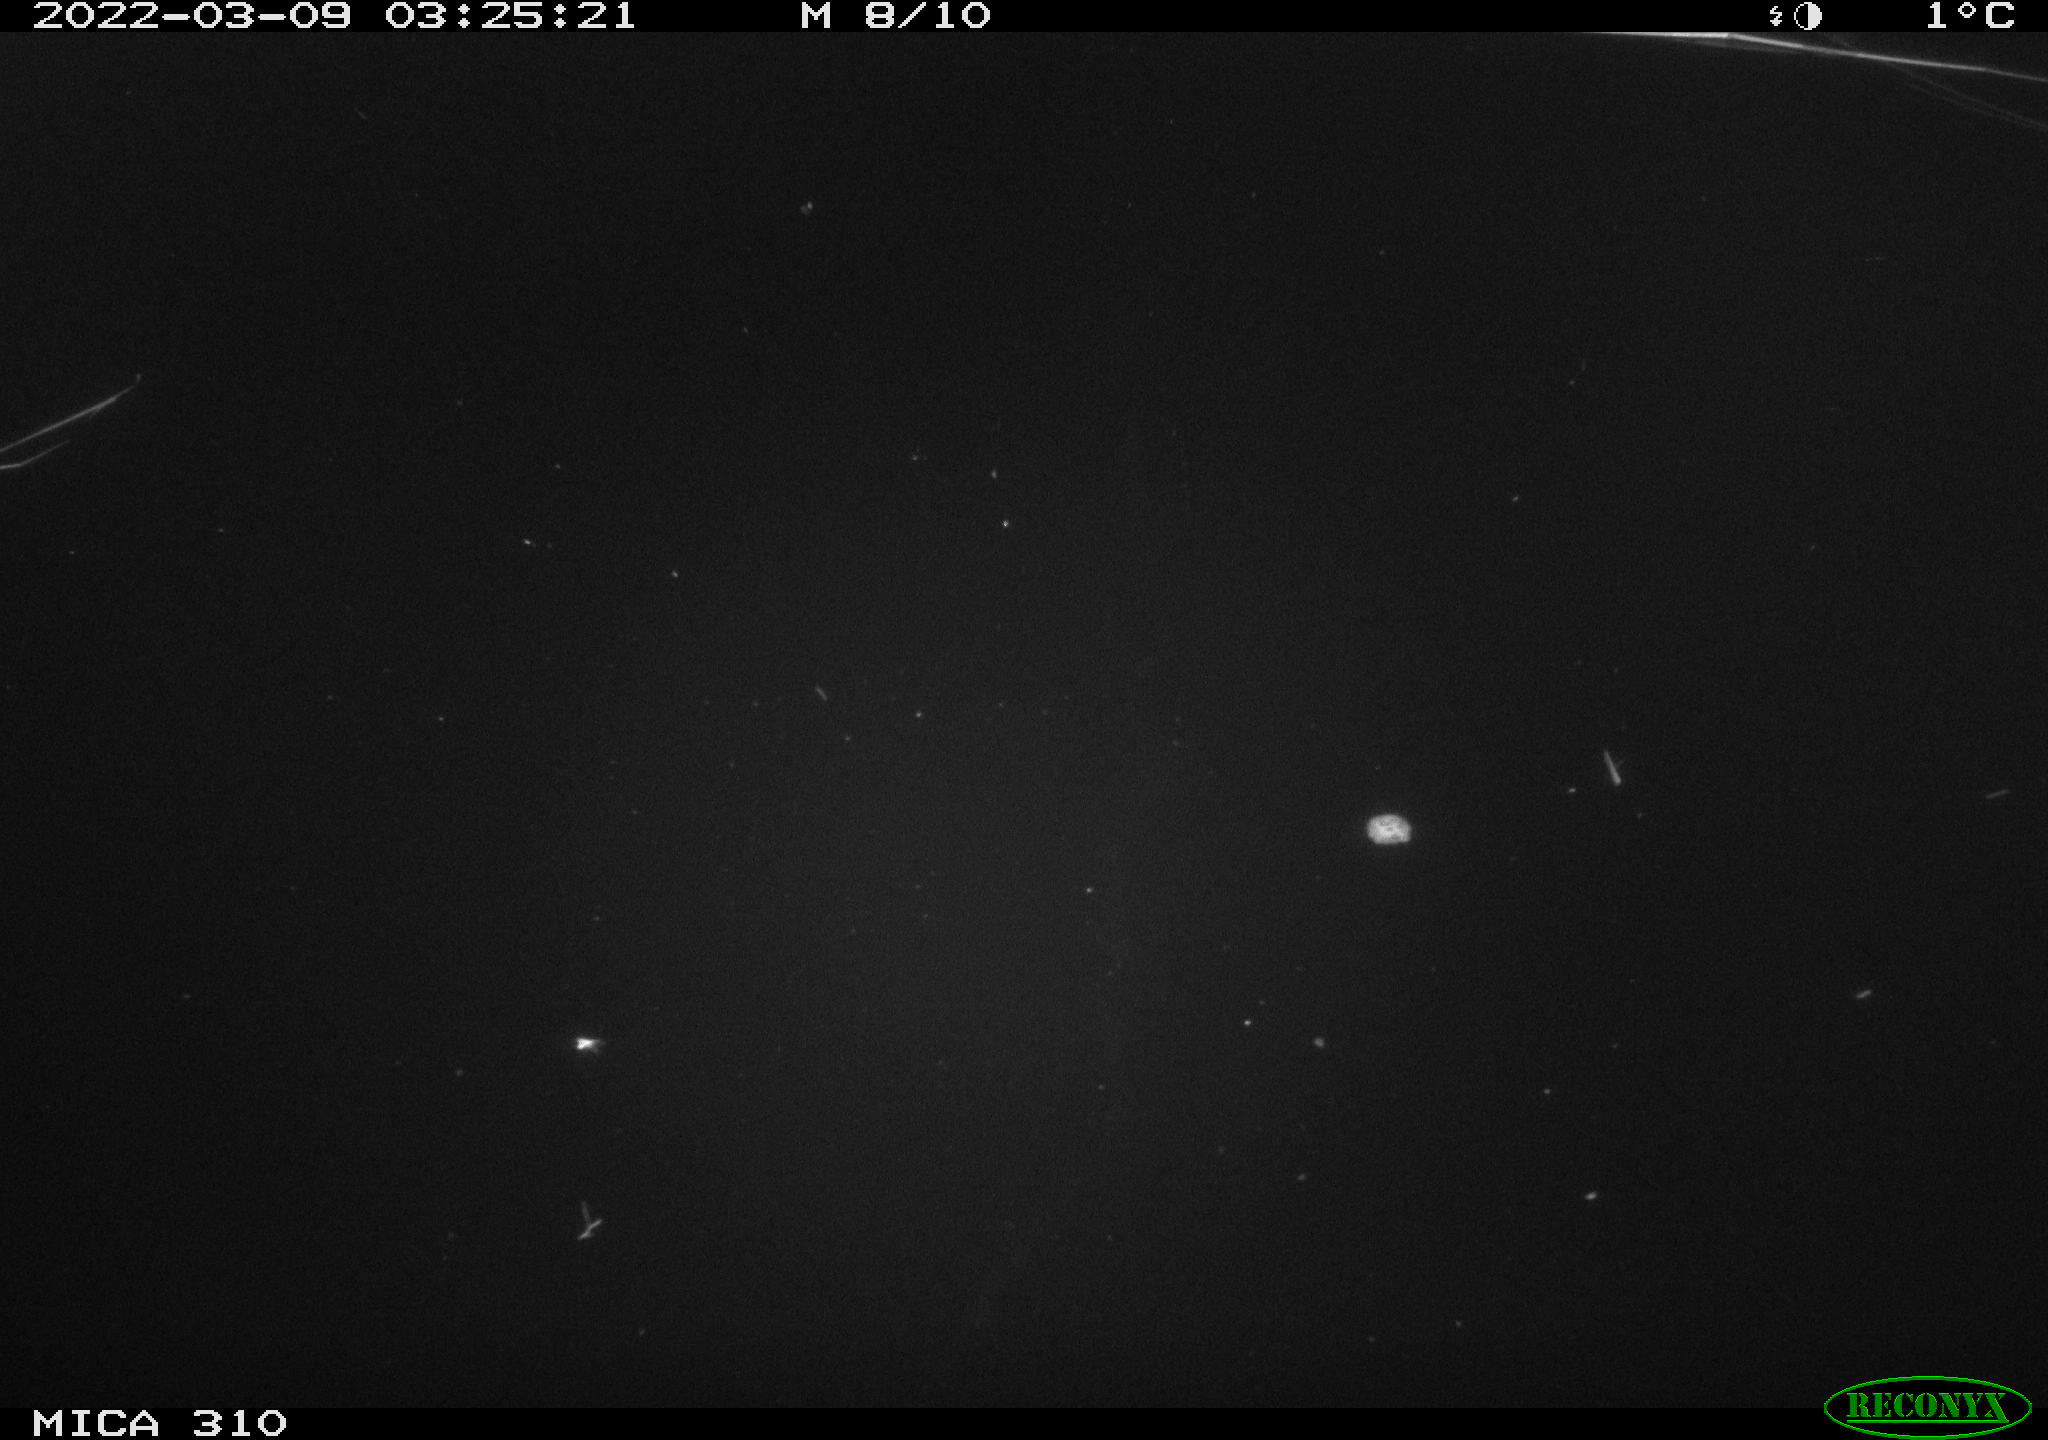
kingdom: Animalia
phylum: Chordata
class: Aves
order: Anseriformes
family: Anatidae
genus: Anas
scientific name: Anas platyrhynchos
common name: Mallard
